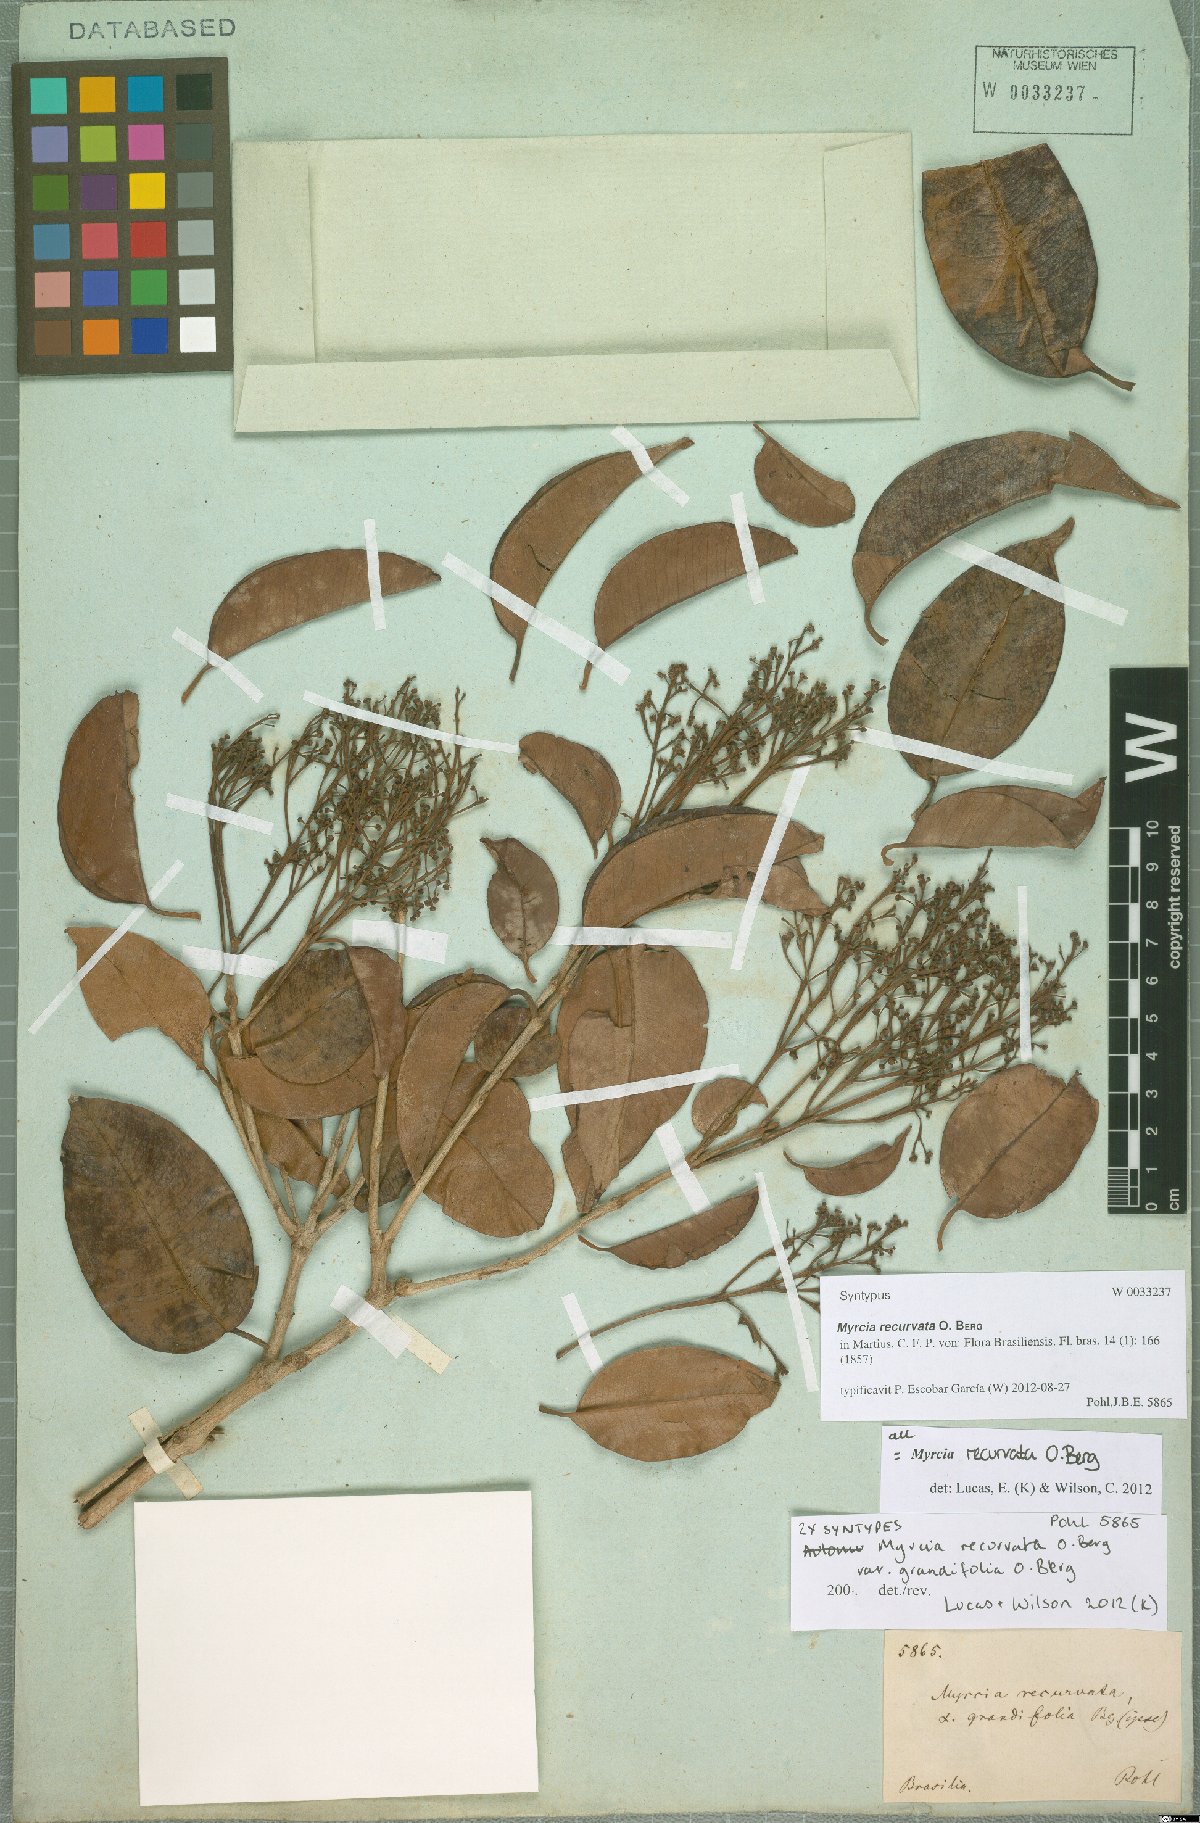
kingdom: Plantae
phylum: Tracheophyta
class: Magnoliopsida
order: Myrtales
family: Myrtaceae
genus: Myrcia
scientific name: Myrcia recurvata
